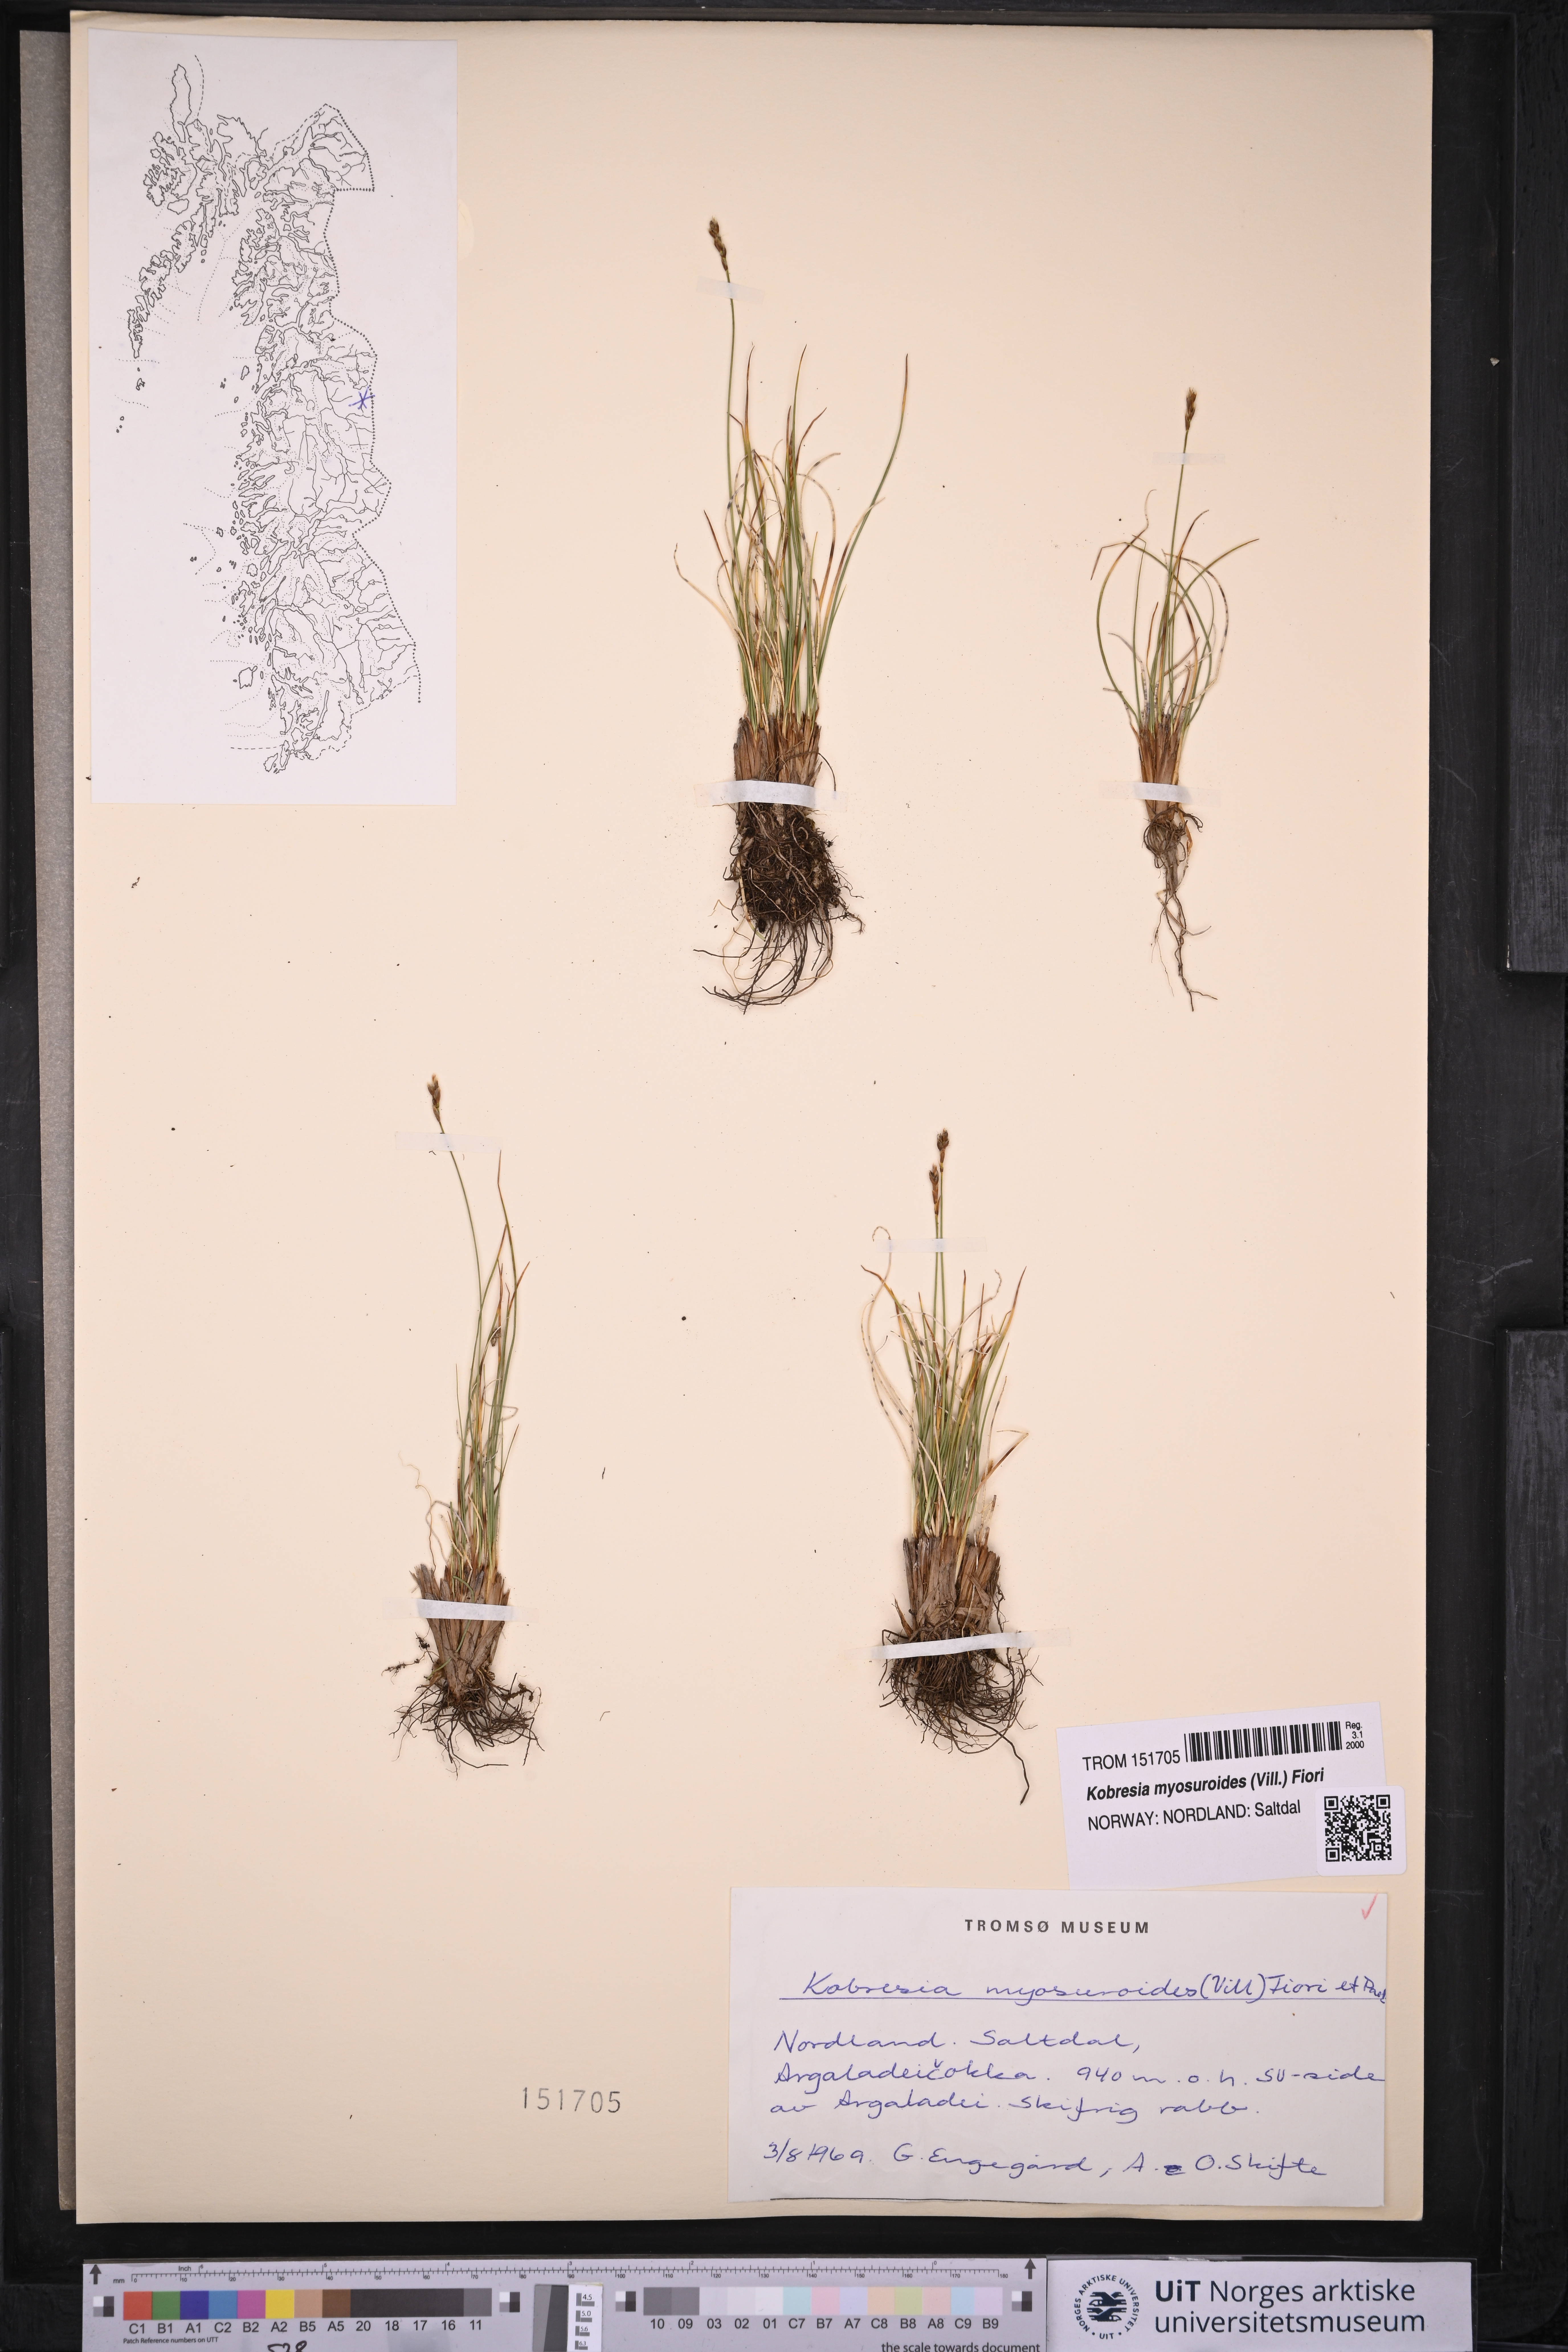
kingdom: Plantae
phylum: Tracheophyta
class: Liliopsida
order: Poales
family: Cyperaceae
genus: Carex
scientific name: Carex myosuroides
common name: Bellard's bog sedge
